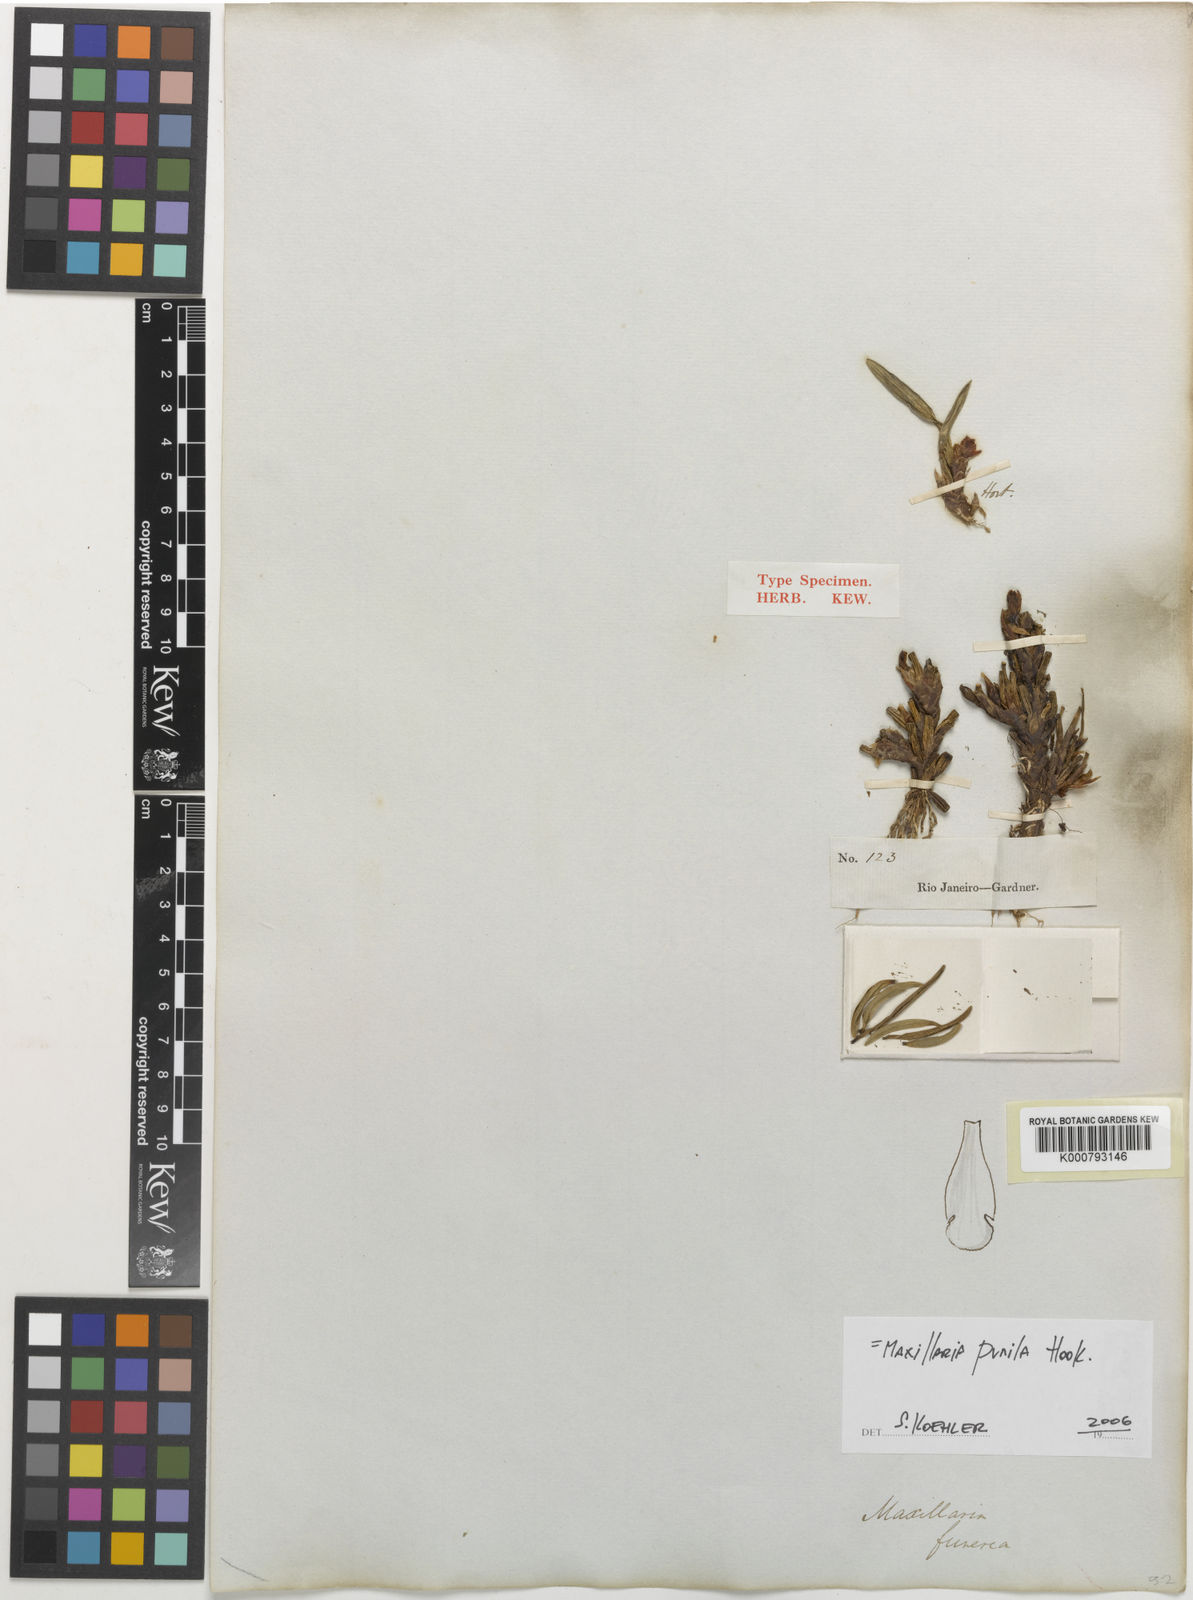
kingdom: Plantae
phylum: Tracheophyta
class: Liliopsida
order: Asparagales
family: Orchidaceae
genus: Maxillaria
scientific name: Maxillaria pumila
